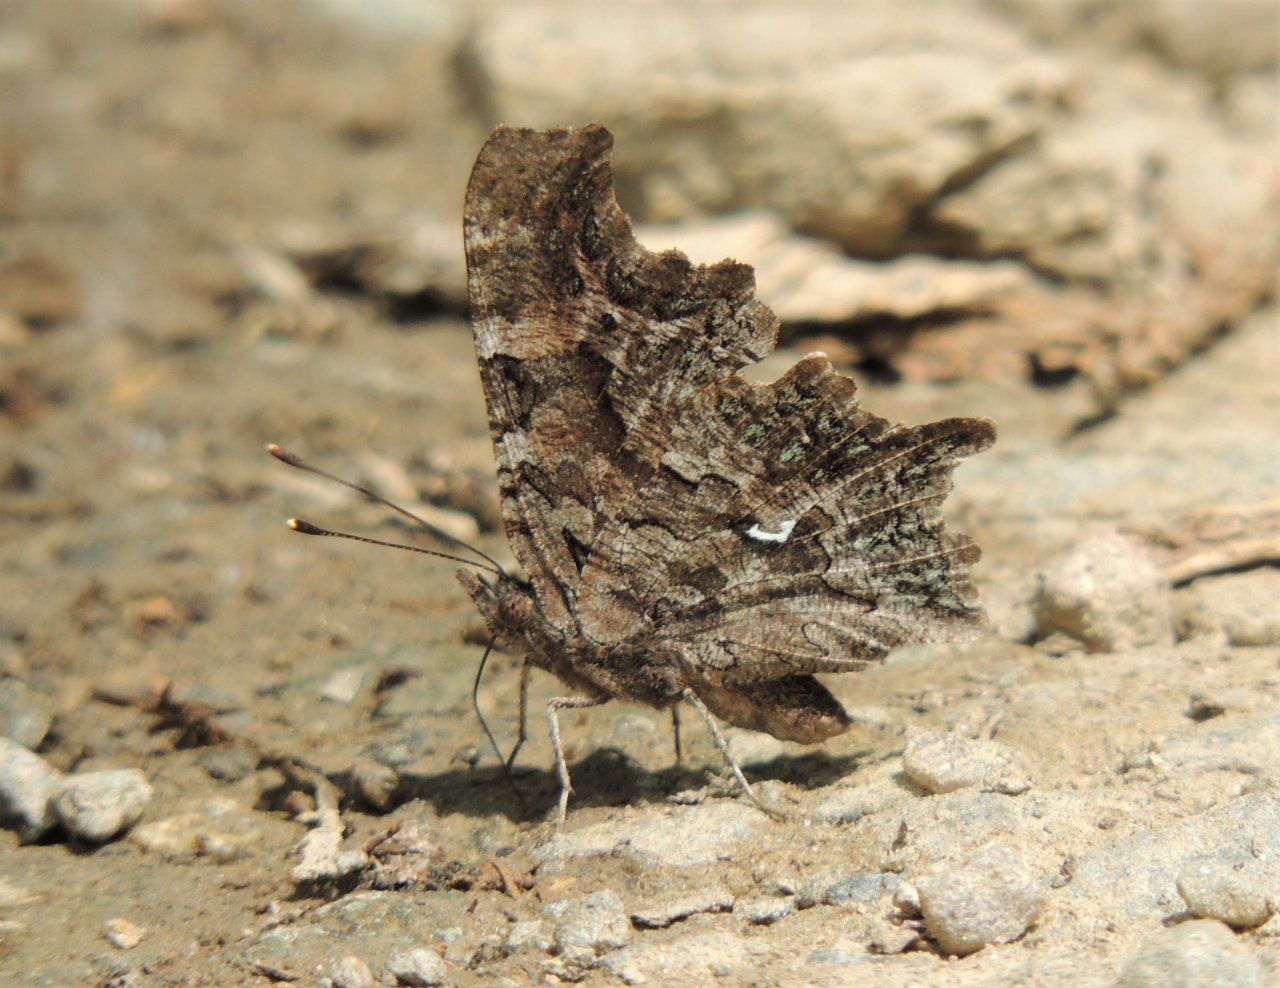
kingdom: Animalia
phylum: Arthropoda
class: Insecta
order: Lepidoptera
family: Nymphalidae
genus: Polygonia
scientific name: Polygonia faunus
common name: Green Comma
